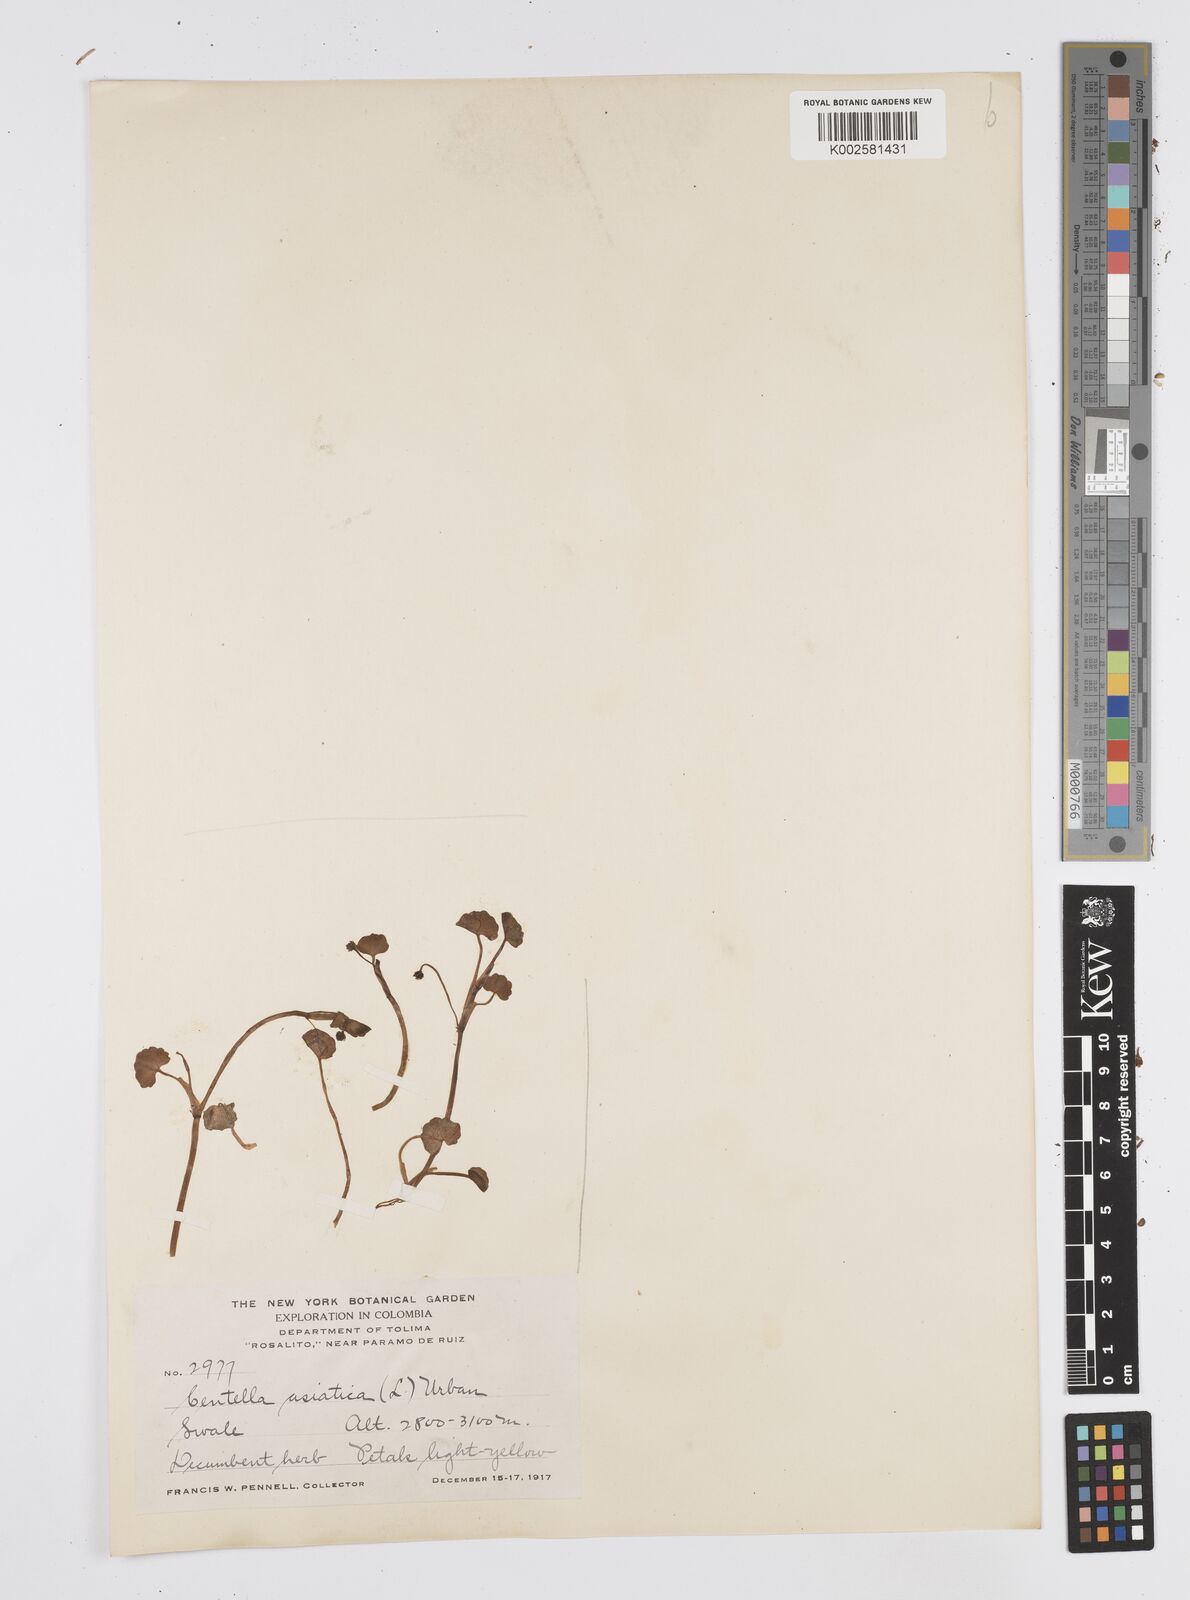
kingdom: Plantae
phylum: Tracheophyta
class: Magnoliopsida
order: Apiales
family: Apiaceae
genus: Centella
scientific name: Centella asiatica
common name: Spadeleaf
